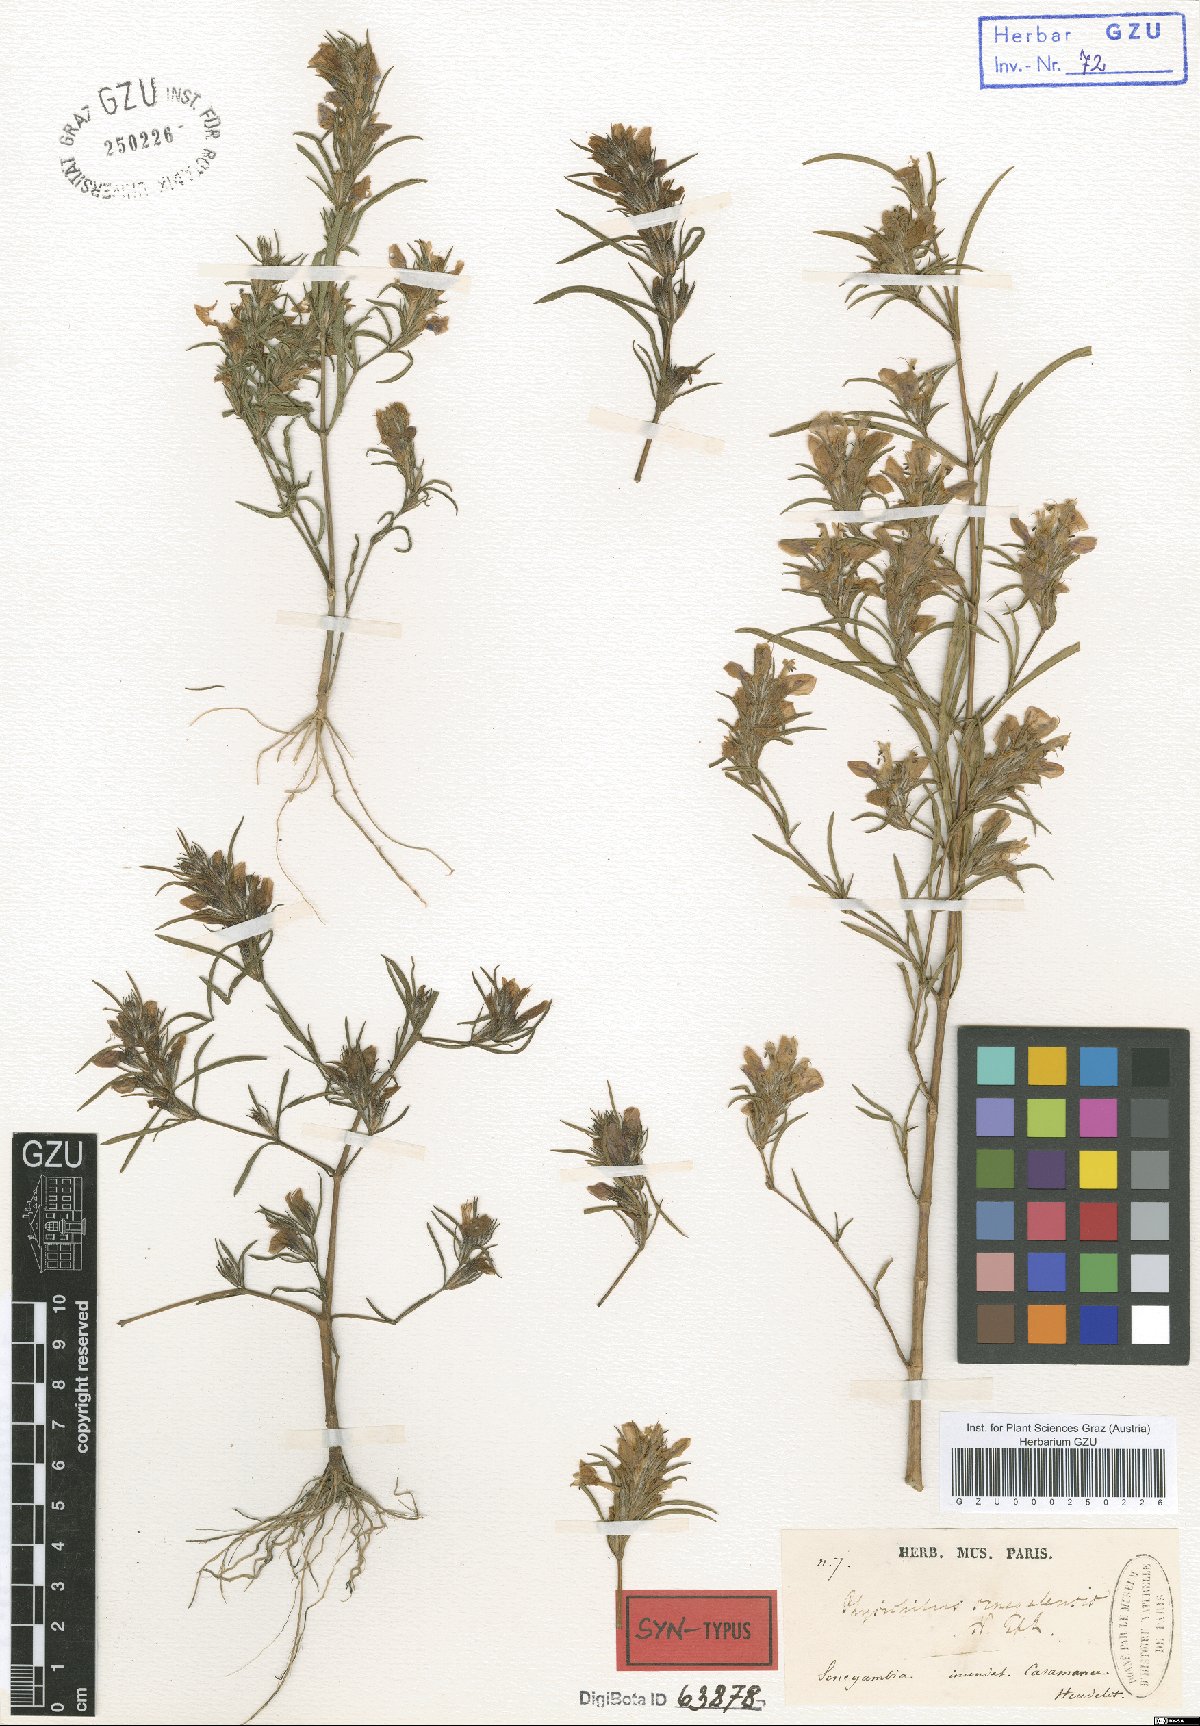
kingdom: Plantae
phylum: Tracheophyta
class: Magnoliopsida
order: Lamiales
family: Acanthaceae
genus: Hygrophila
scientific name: Hygrophila micrantha
